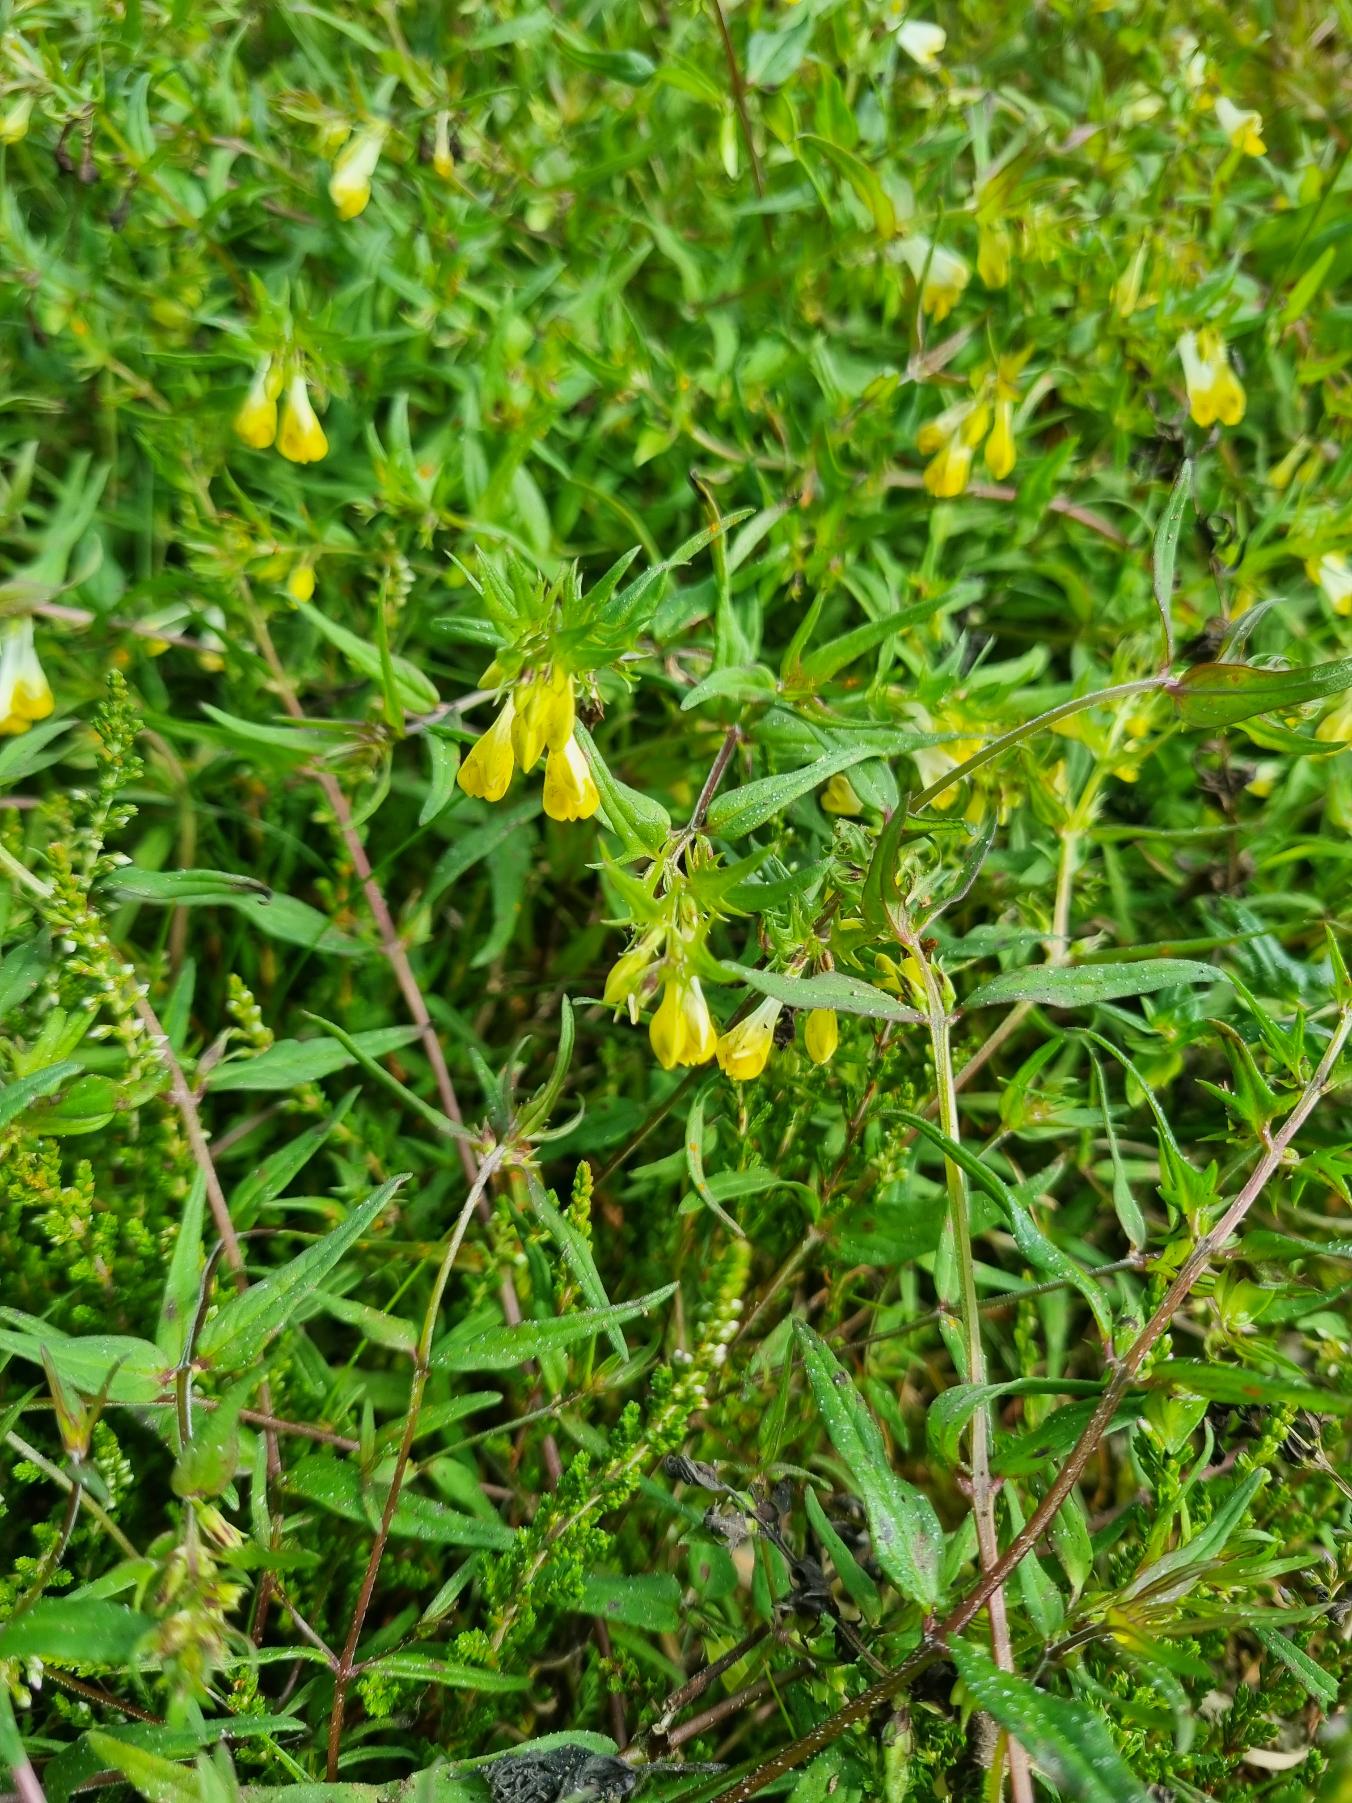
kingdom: Plantae
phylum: Tracheophyta
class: Magnoliopsida
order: Lamiales
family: Orobanchaceae
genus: Melampyrum
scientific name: Melampyrum pratense
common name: Almindelig kohvede
